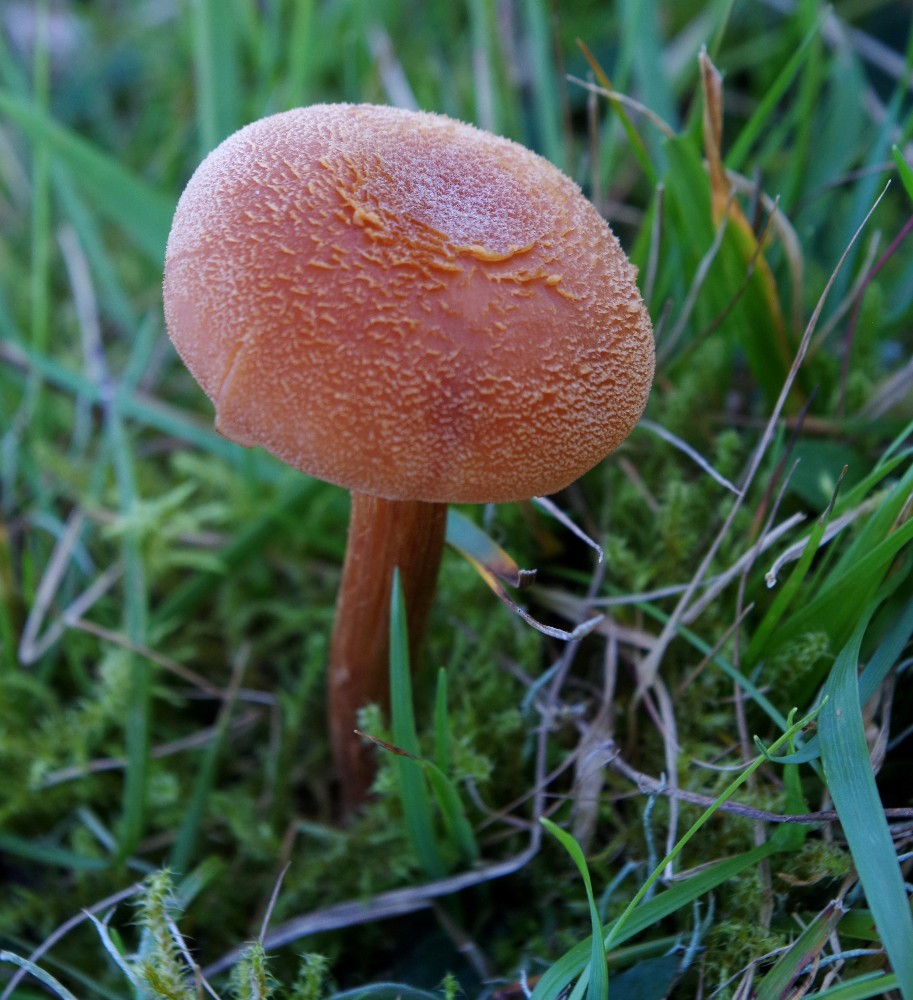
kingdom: Fungi
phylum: Basidiomycota
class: Agaricomycetes
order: Agaricales
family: Hydnangiaceae
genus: Laccaria
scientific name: Laccaria bicolor
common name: tvefarvet ametysthat
